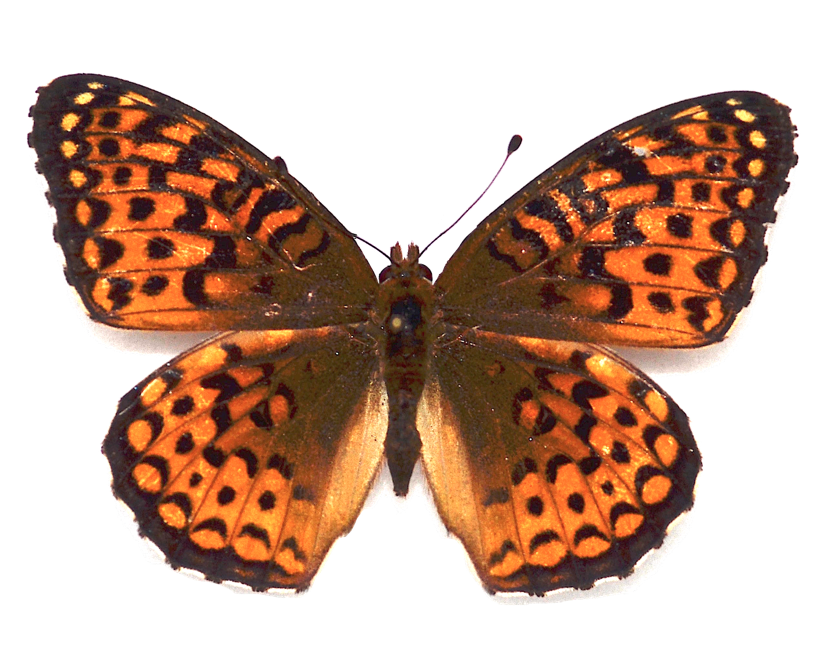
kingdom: Animalia
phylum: Arthropoda
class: Insecta
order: Lepidoptera
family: Nymphalidae
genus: Speyeria
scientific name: Speyeria aphrodite
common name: Aphrodite Fritillary
